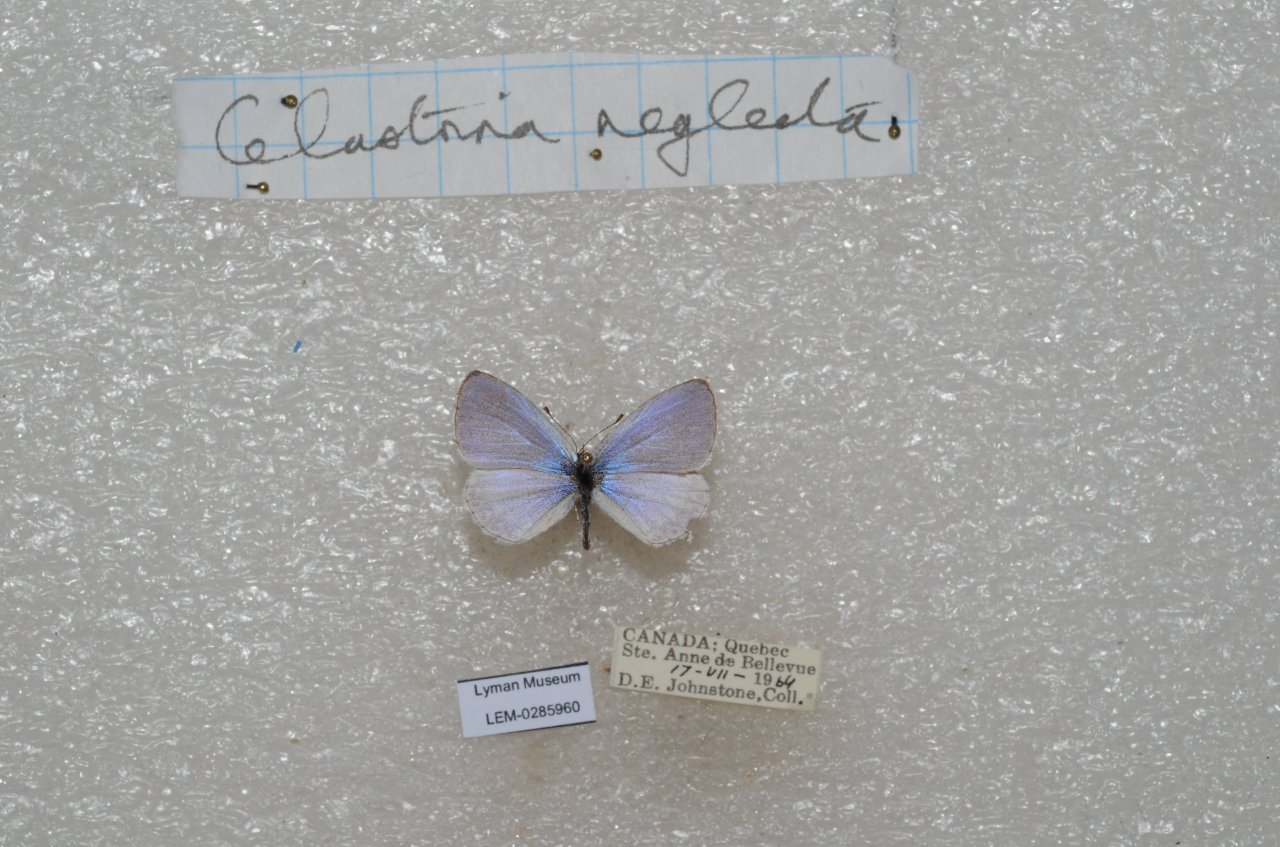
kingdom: Animalia
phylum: Arthropoda
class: Insecta
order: Lepidoptera
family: Lycaenidae
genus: Celastrina
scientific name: Celastrina lucia
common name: Northern Spring Azure
